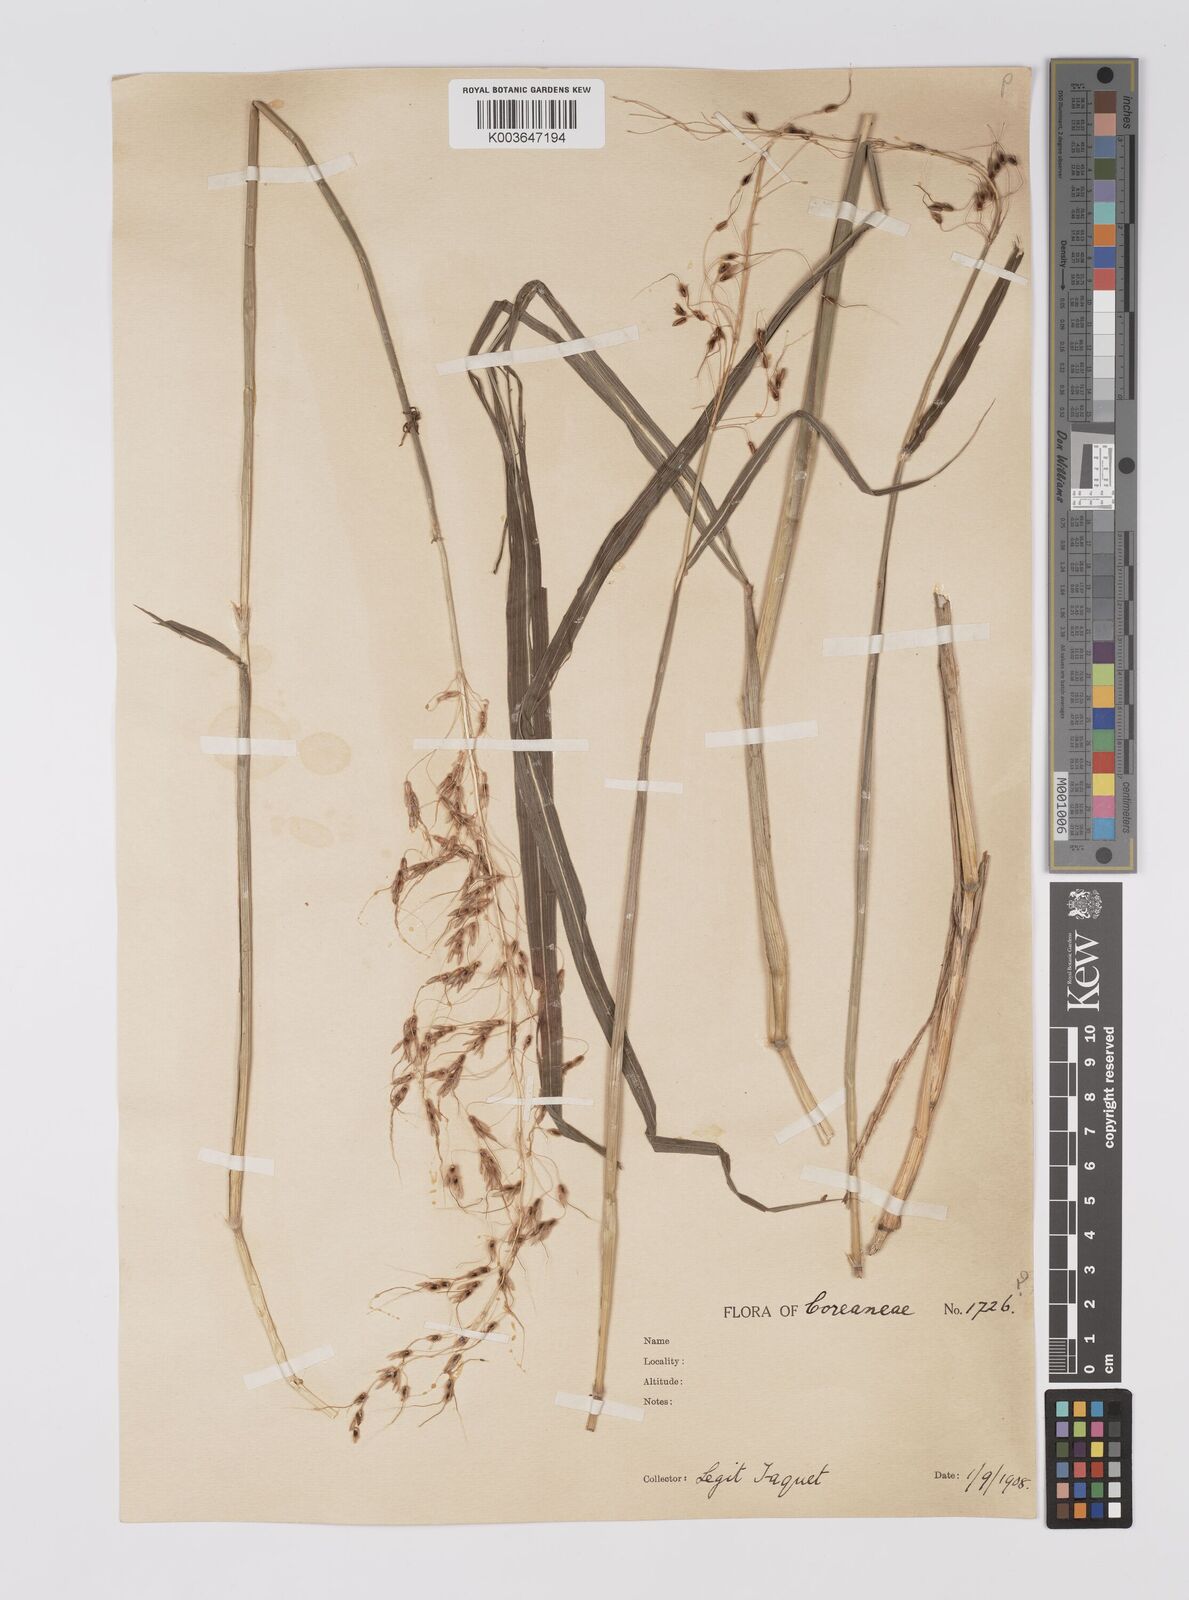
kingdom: Plantae
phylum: Tracheophyta
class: Liliopsida
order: Poales
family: Poaceae
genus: Sorghum
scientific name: Sorghum nitidum
